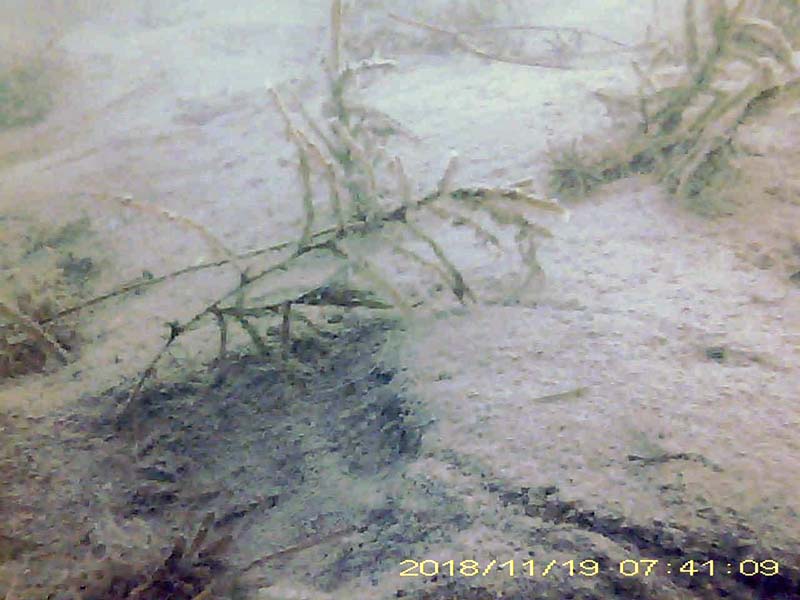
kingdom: Animalia
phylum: Chordata
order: Perciformes
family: Gobiidae
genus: Rhinogobius
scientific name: Rhinogobius
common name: ヨシノボリ
